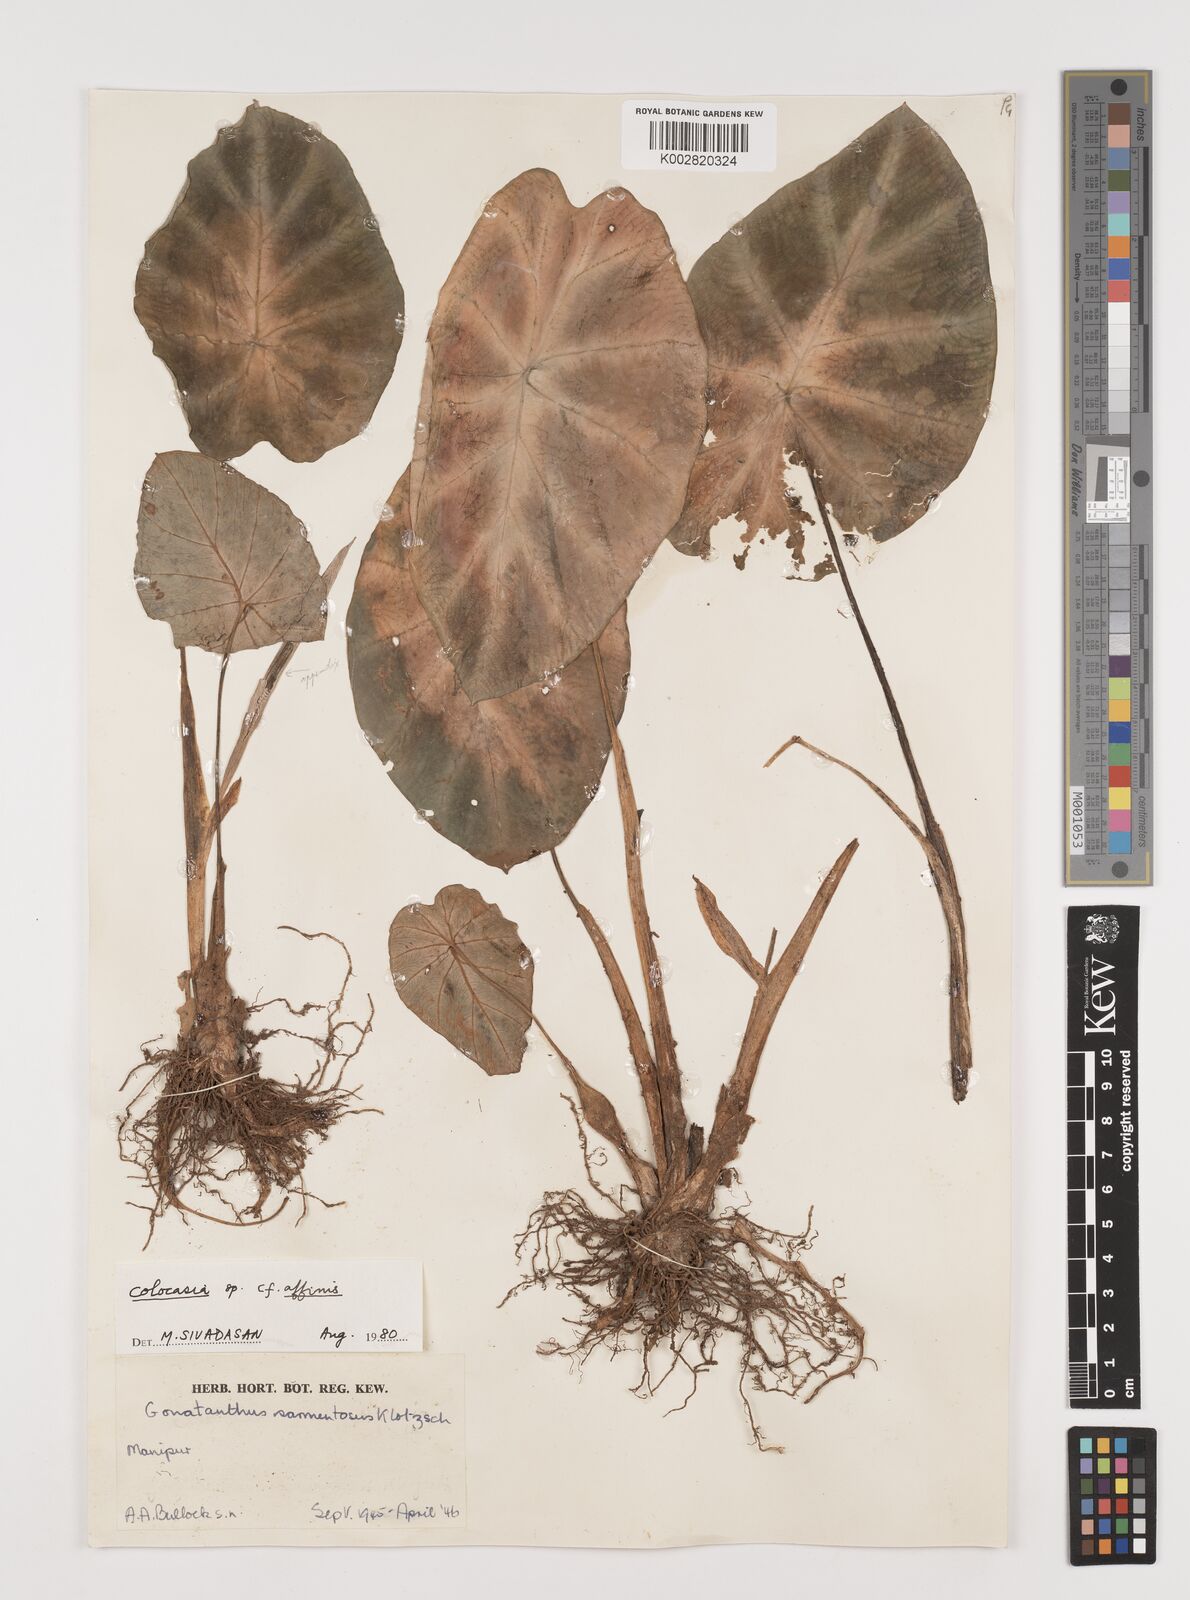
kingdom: Plantae
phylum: Tracheophyta
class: Liliopsida
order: Alismatales
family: Araceae
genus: Colocasia
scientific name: Colocasia affinis
